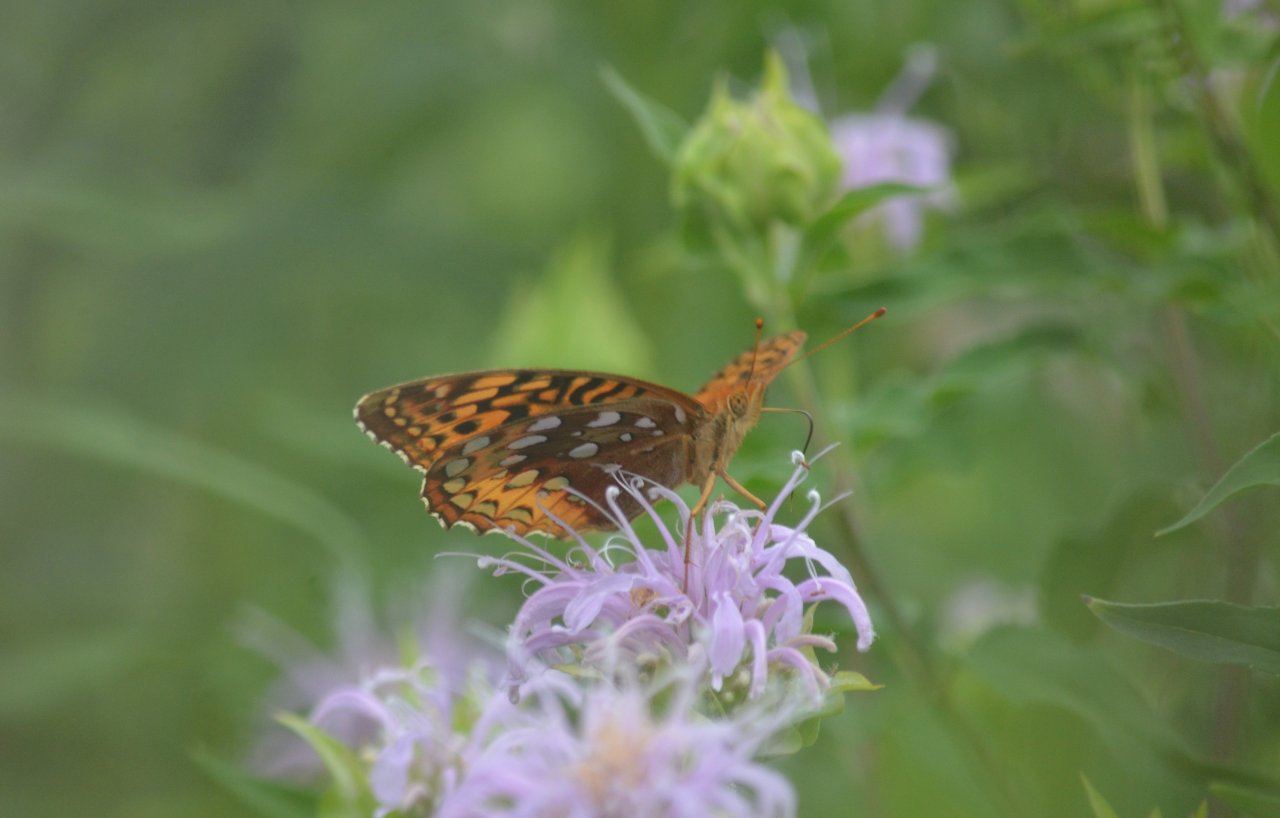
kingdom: Animalia
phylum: Arthropoda
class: Insecta
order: Lepidoptera
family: Nymphalidae
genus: Speyeria
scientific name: Speyeria cybele
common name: Great Spangled Fritillary
